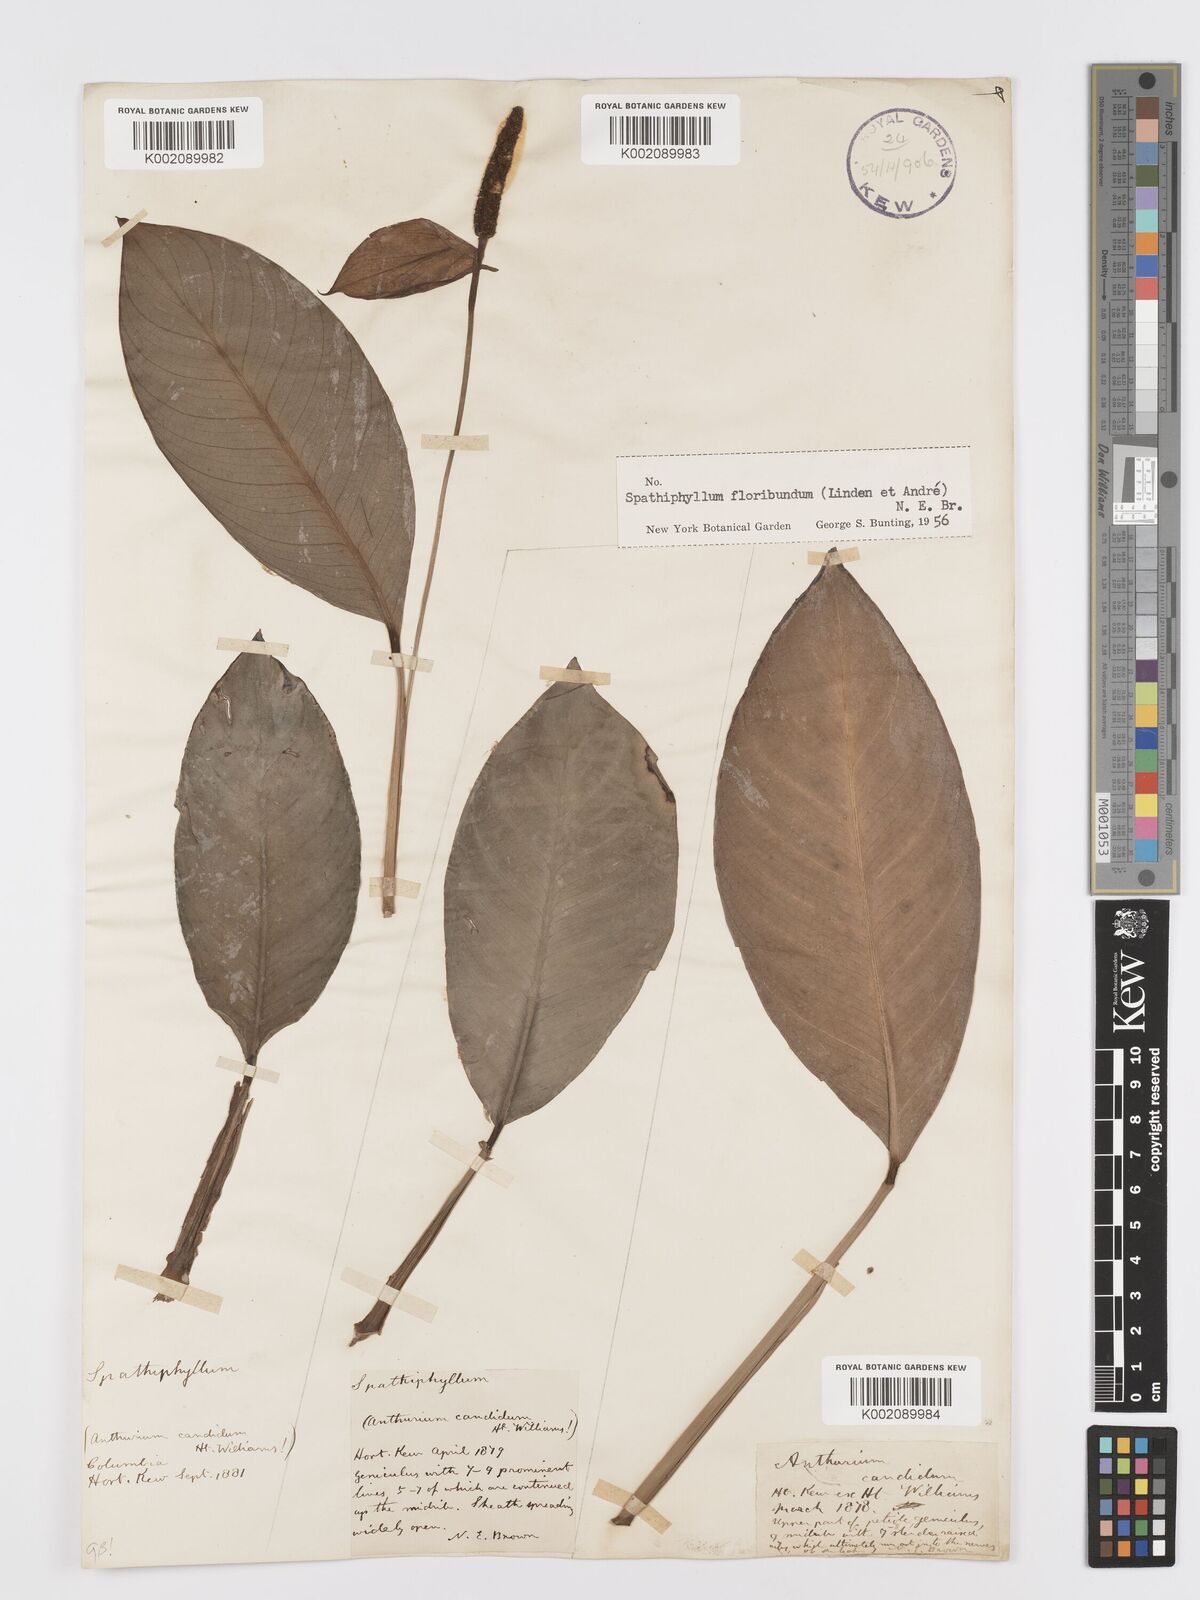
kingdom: Plantae
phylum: Tracheophyta
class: Liliopsida
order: Alismatales
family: Araceae
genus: Spathiphyllum
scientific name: Spathiphyllum floribundum
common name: Peace-lily
